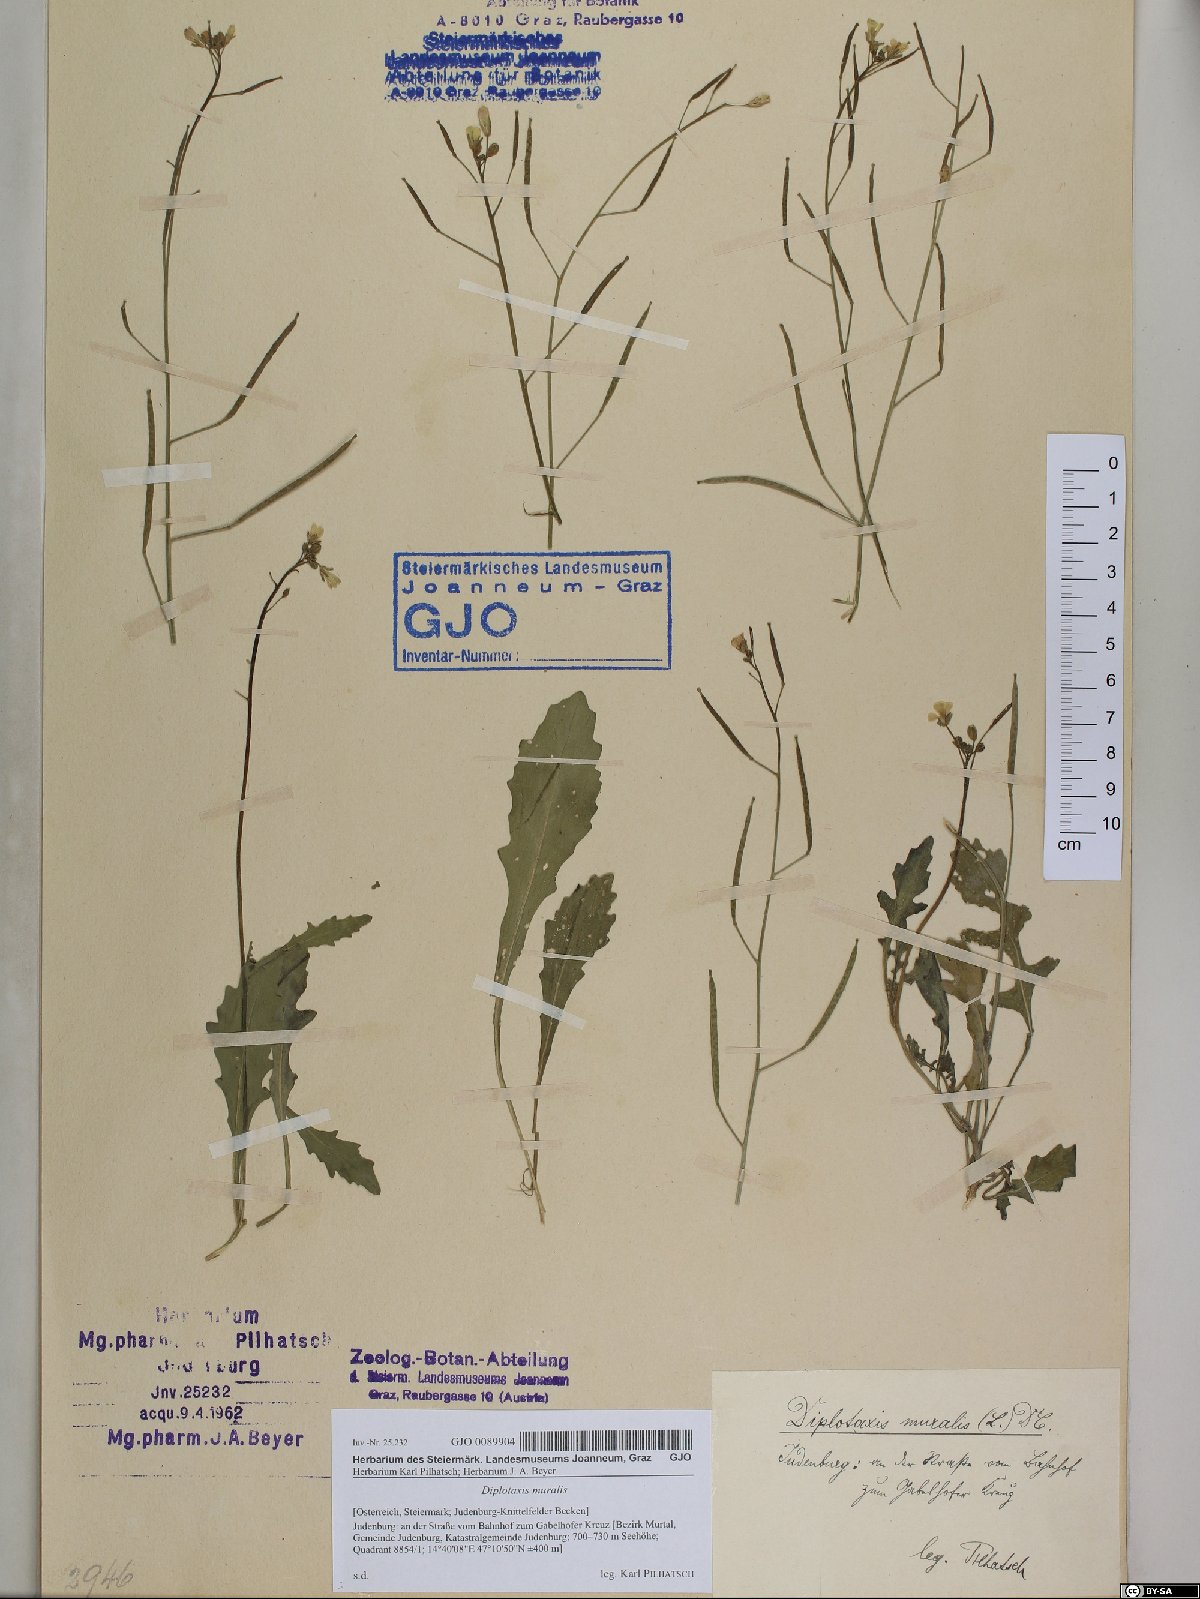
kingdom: Plantae
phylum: Tracheophyta
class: Magnoliopsida
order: Brassicales
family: Brassicaceae
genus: Diplotaxis
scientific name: Diplotaxis muralis
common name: Annual wall-rocket
